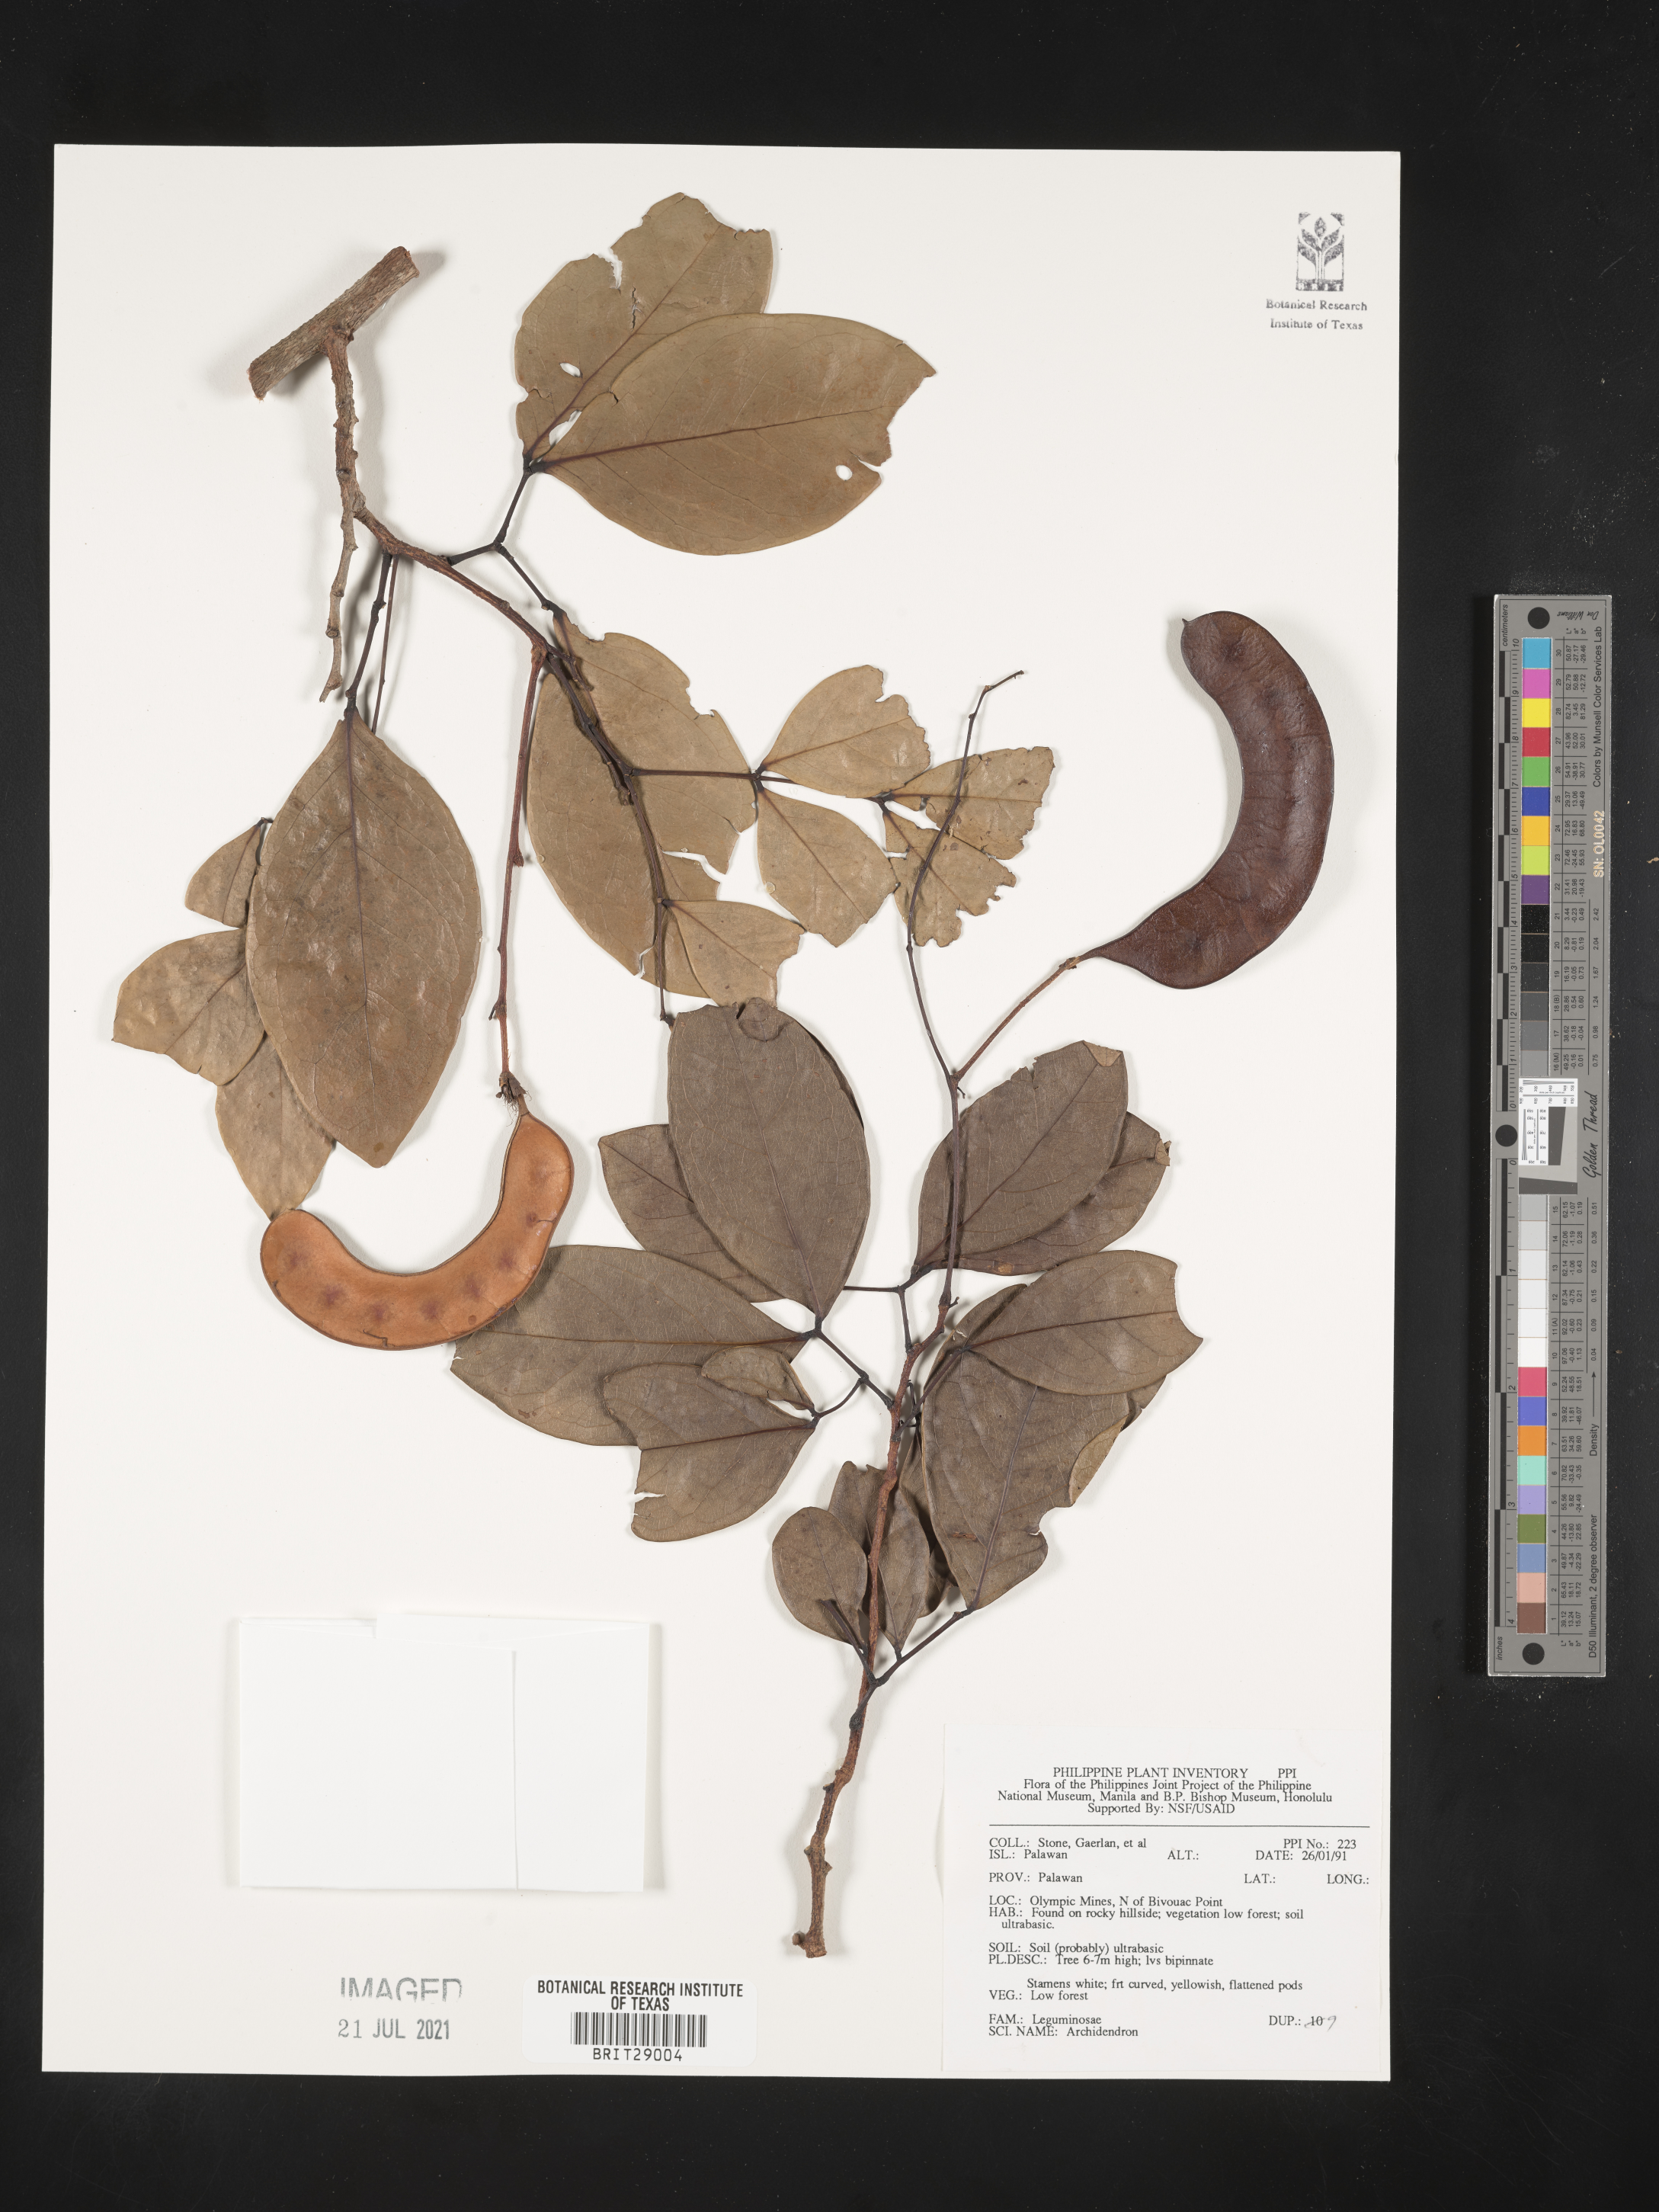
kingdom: Plantae
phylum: Tracheophyta
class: Magnoliopsida
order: Fabales
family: Fabaceae
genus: Archidendron
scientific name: Archidendron
